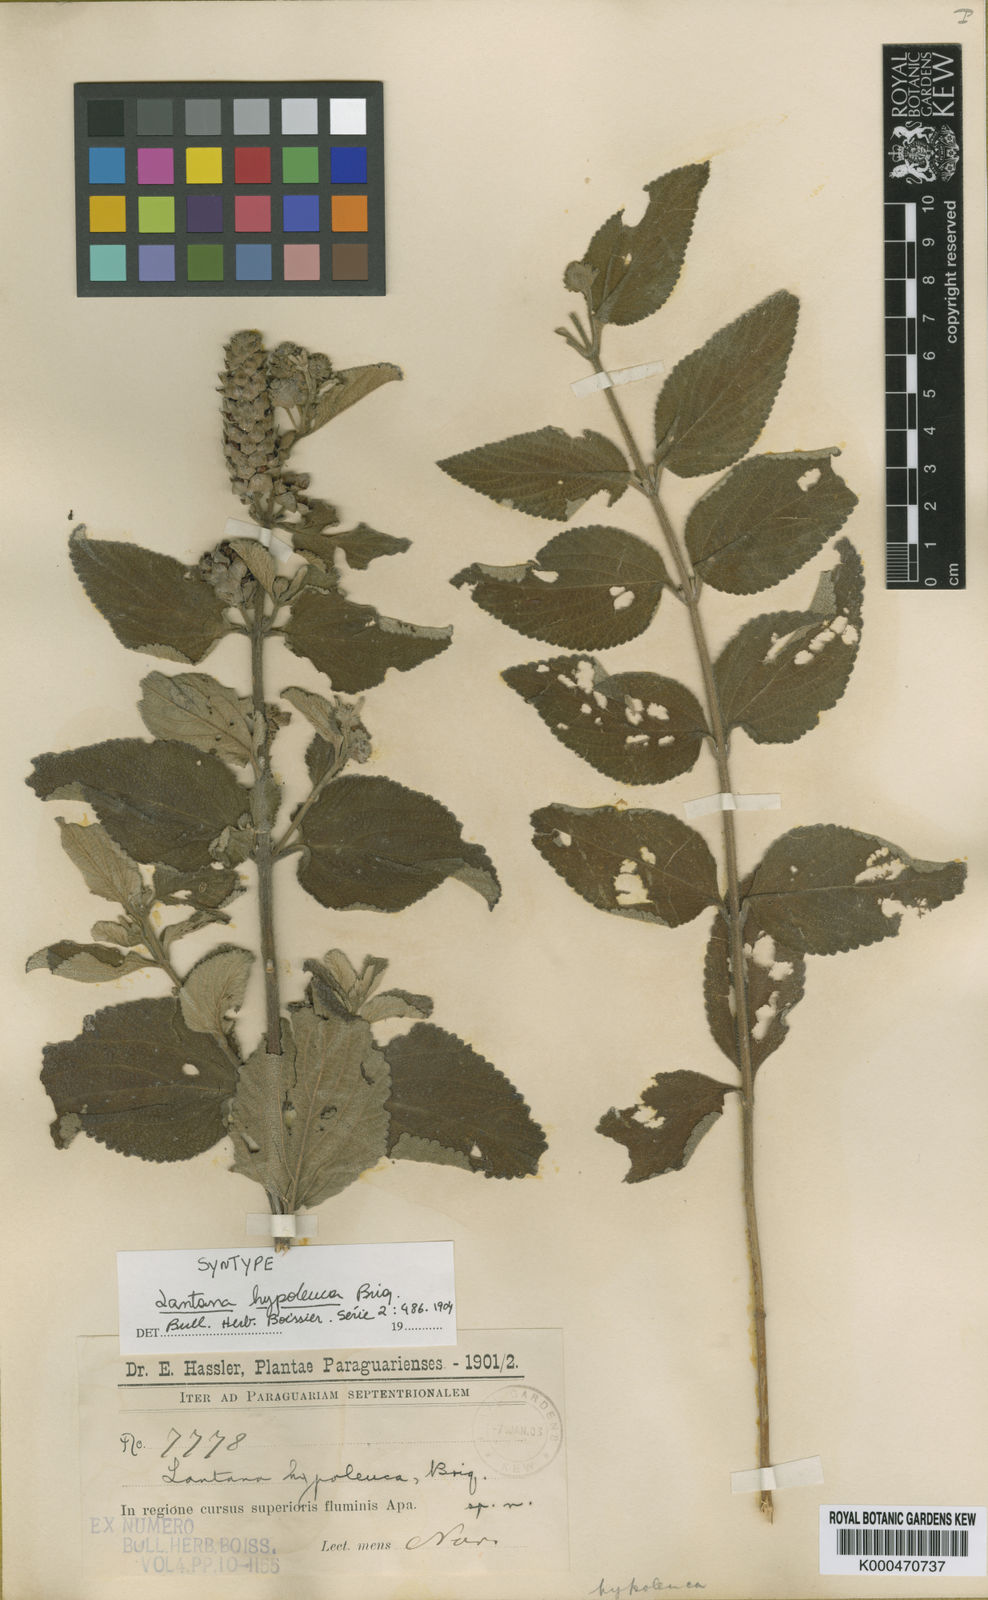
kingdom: Plantae
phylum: Tracheophyta
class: Magnoliopsida
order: Lamiales
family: Verbenaceae
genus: Lantana
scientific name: Lantana hypoleuca
